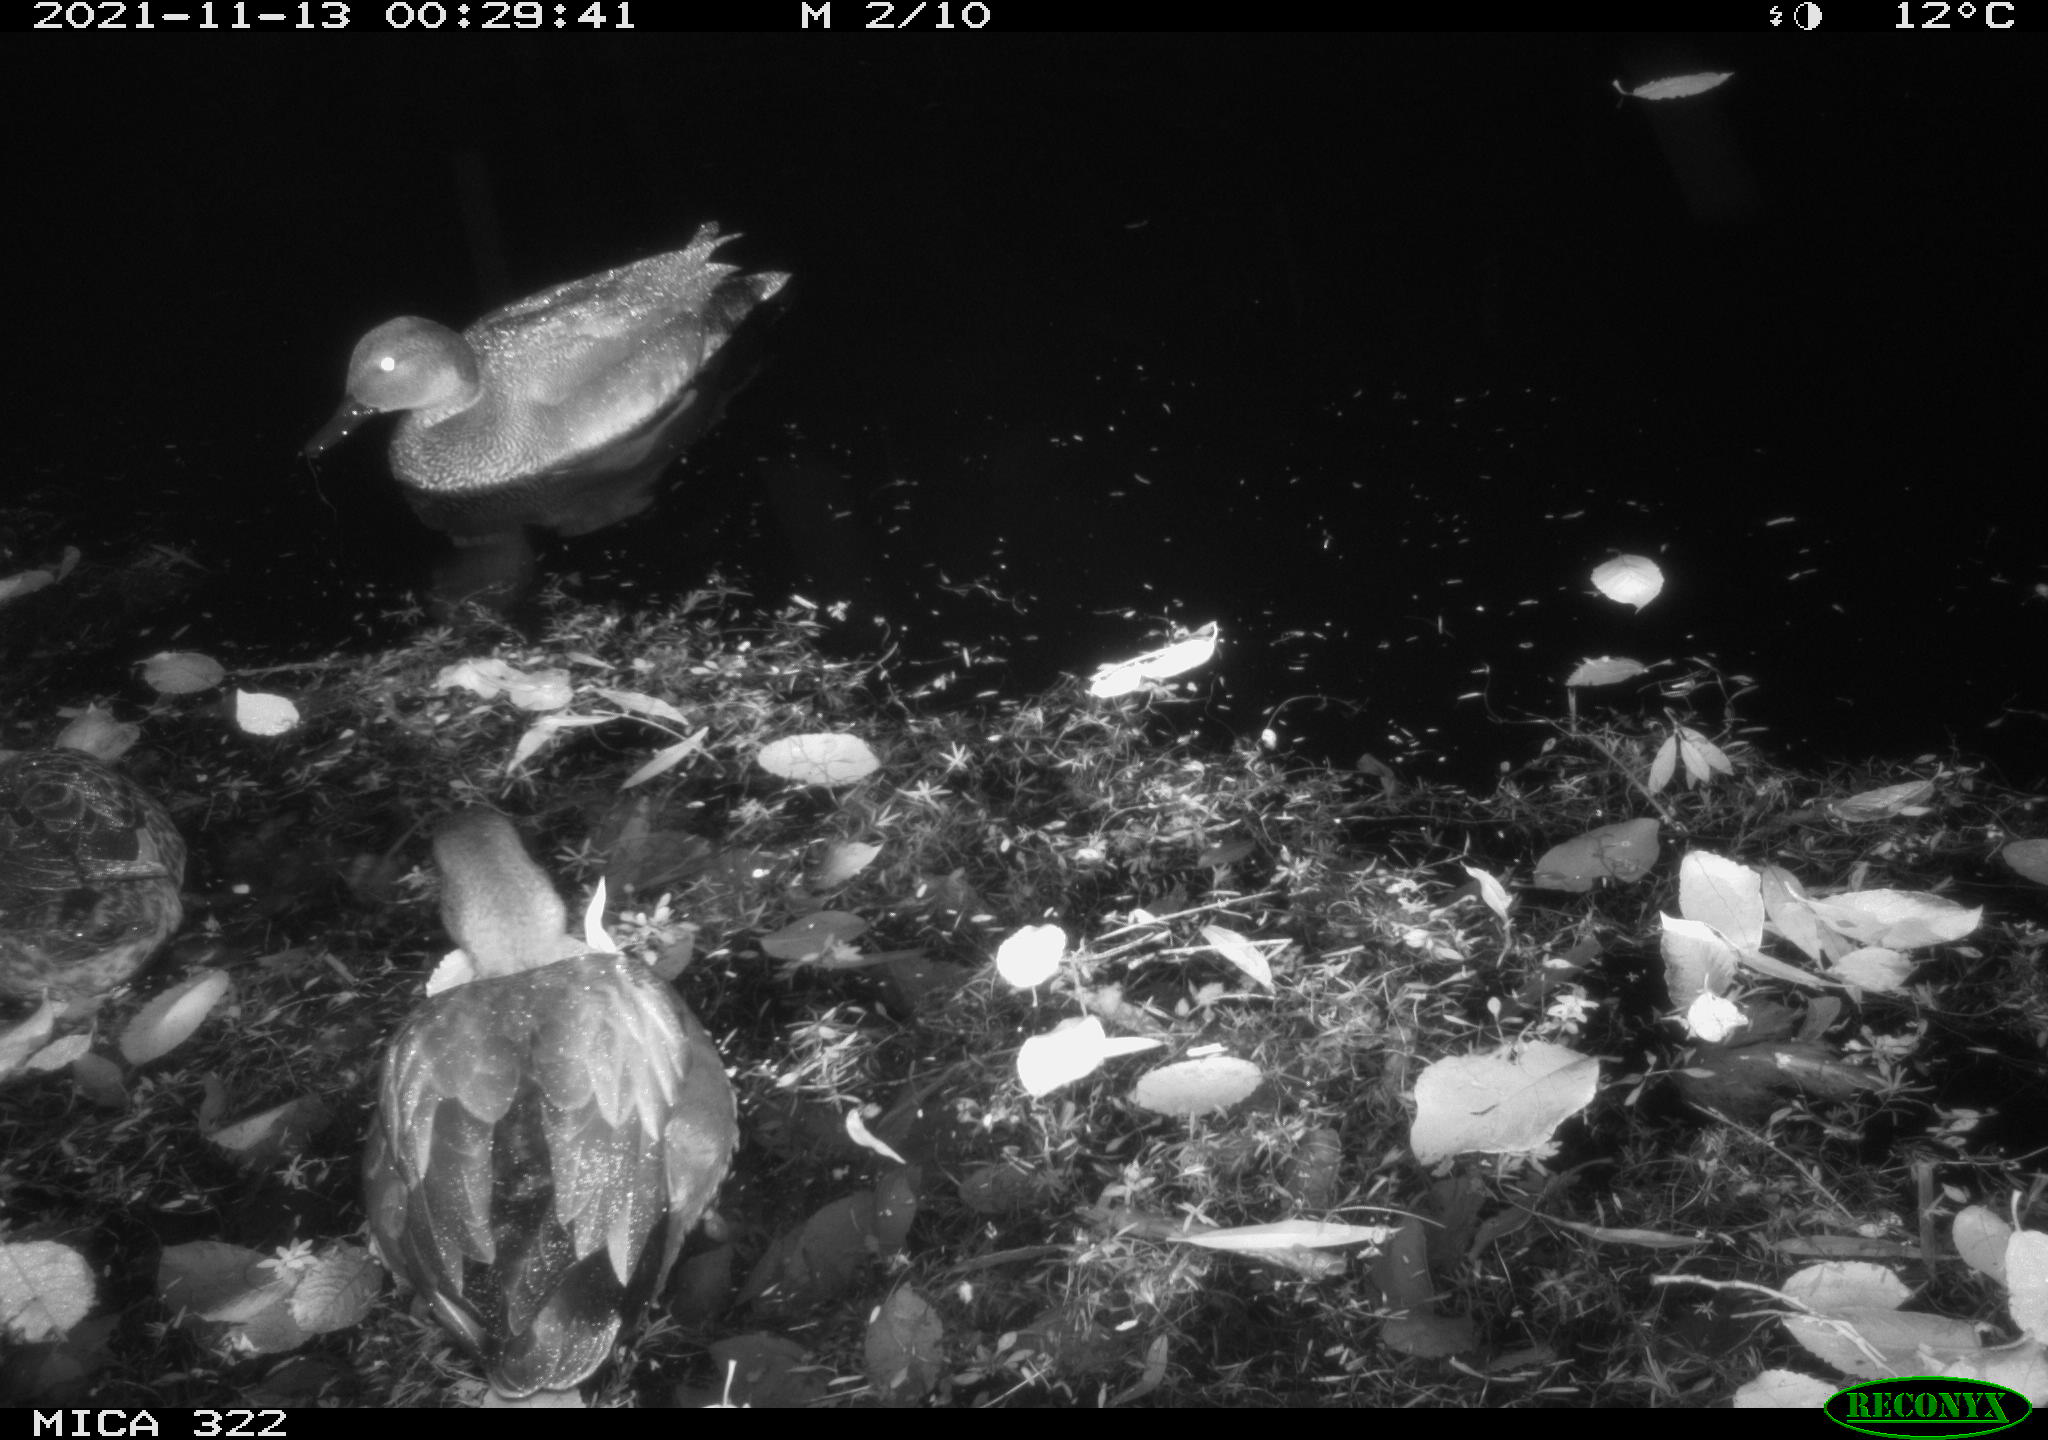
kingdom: Animalia
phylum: Chordata
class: Aves
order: Anseriformes
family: Anatidae
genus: Anas
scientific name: Anas platyrhynchos
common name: Mallard
